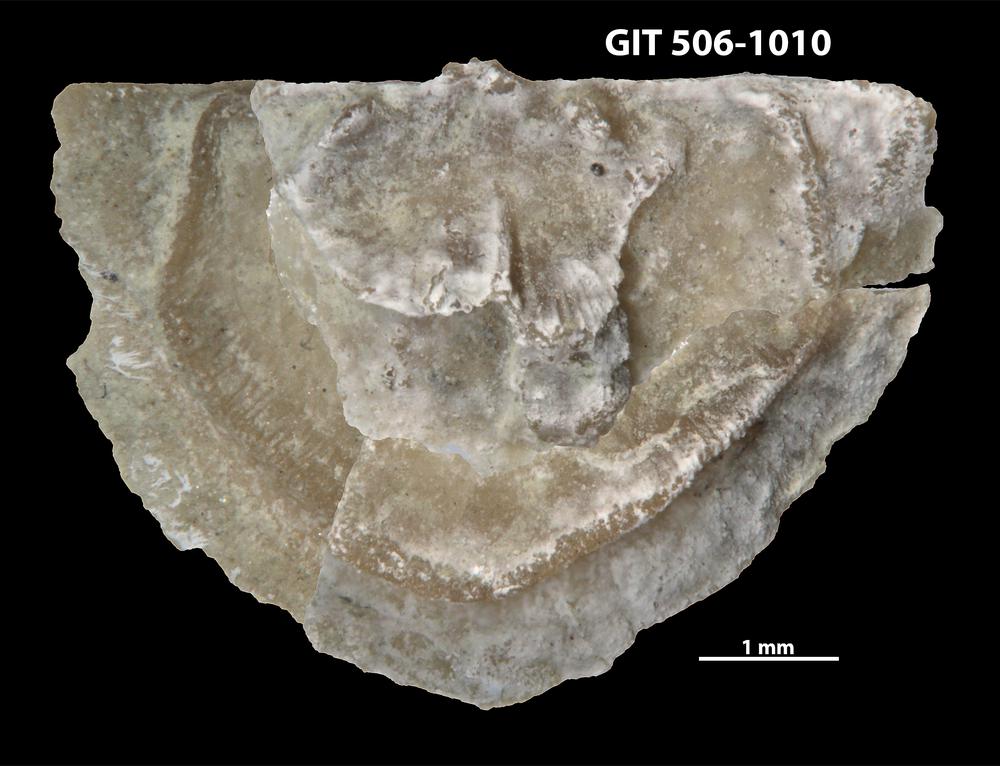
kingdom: Animalia
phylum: Brachiopoda
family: Leptellinidae
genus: Leangella
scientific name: Leangella Plectambonites scissa
